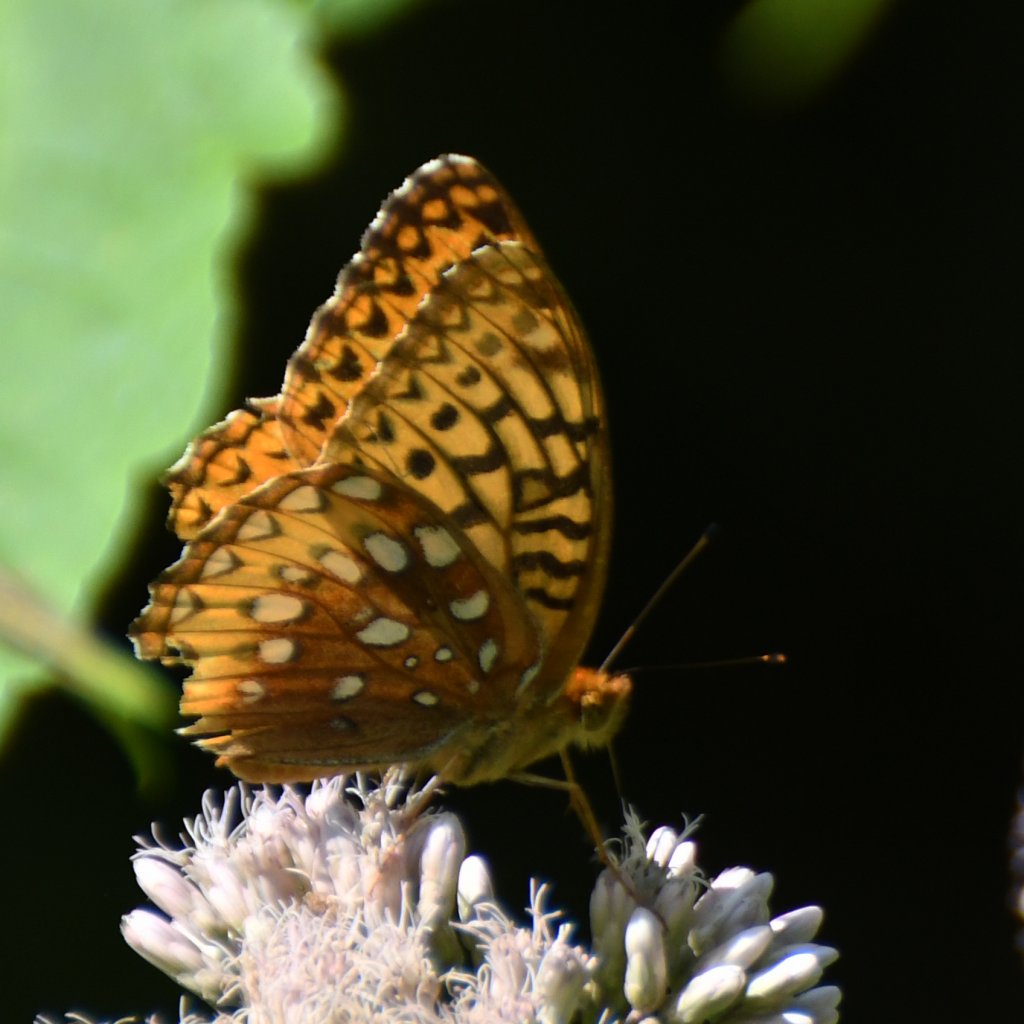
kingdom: Animalia
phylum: Arthropoda
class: Insecta
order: Lepidoptera
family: Nymphalidae
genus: Speyeria
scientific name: Speyeria cybele
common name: Great Spangled Fritillary
